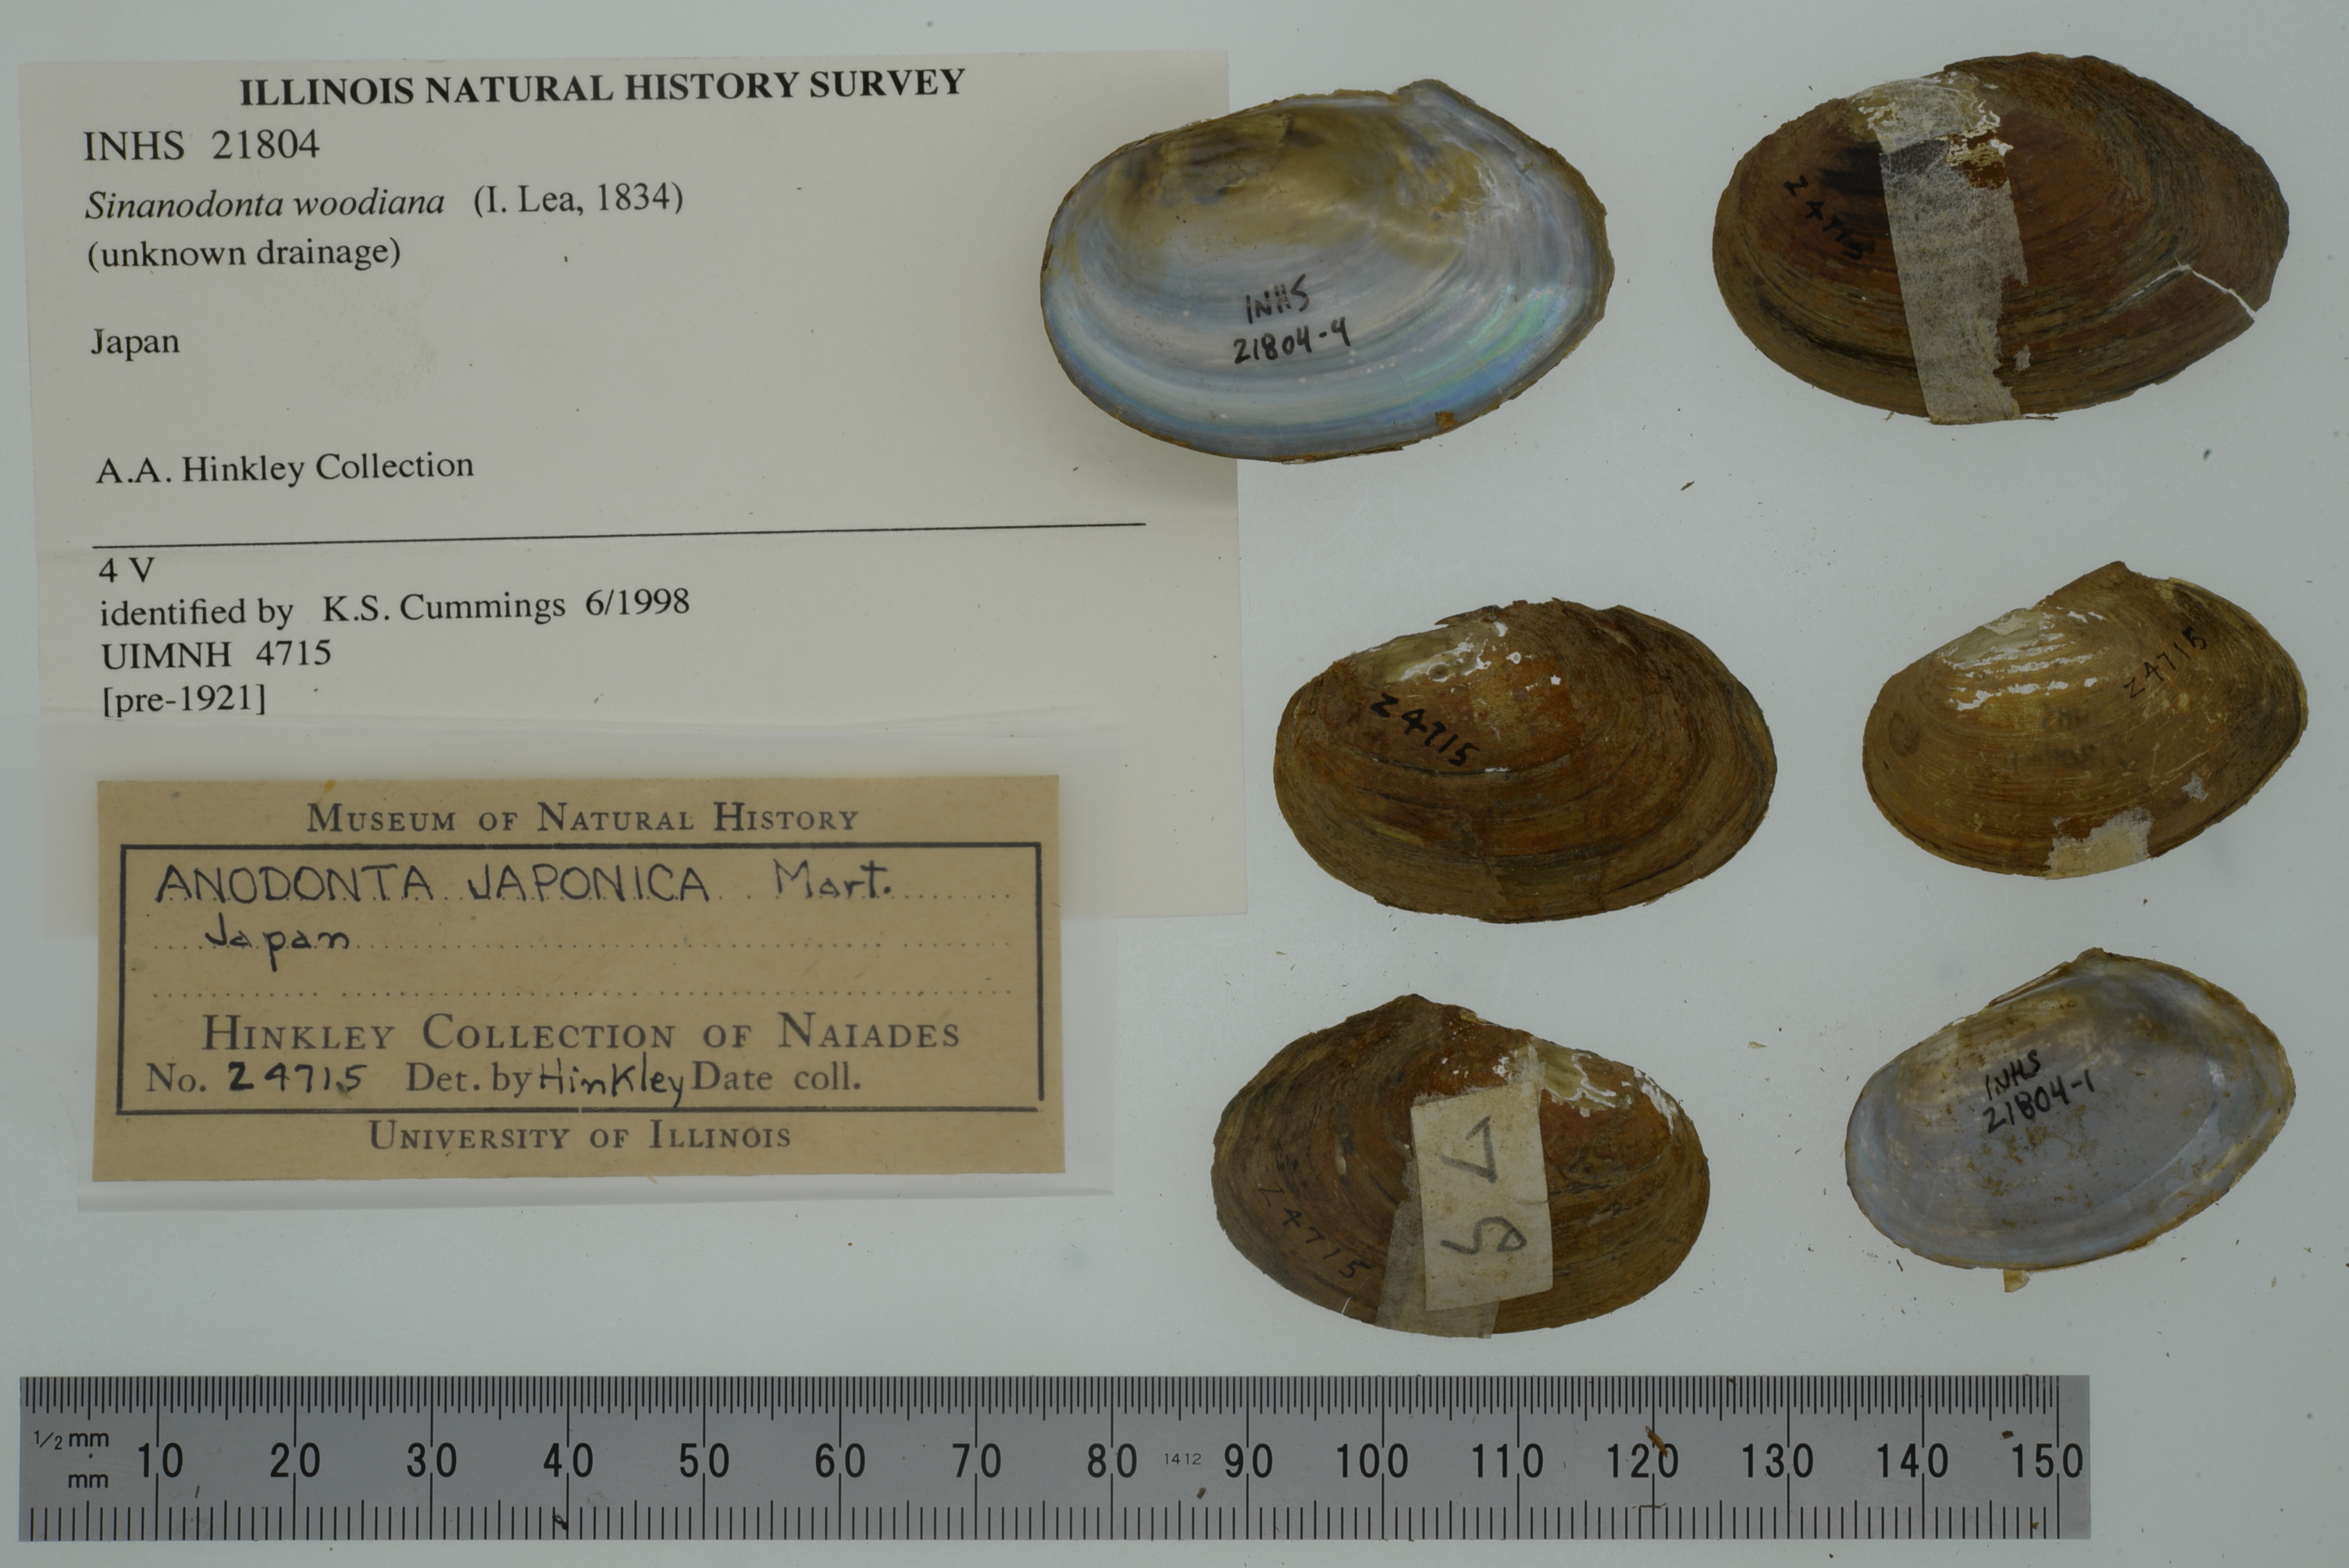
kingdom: Animalia
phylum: Mollusca
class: Bivalvia
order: Unionida
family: Unionidae
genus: Sinanodonta
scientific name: Sinanodonta woodiana
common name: Chinese pond mussel
